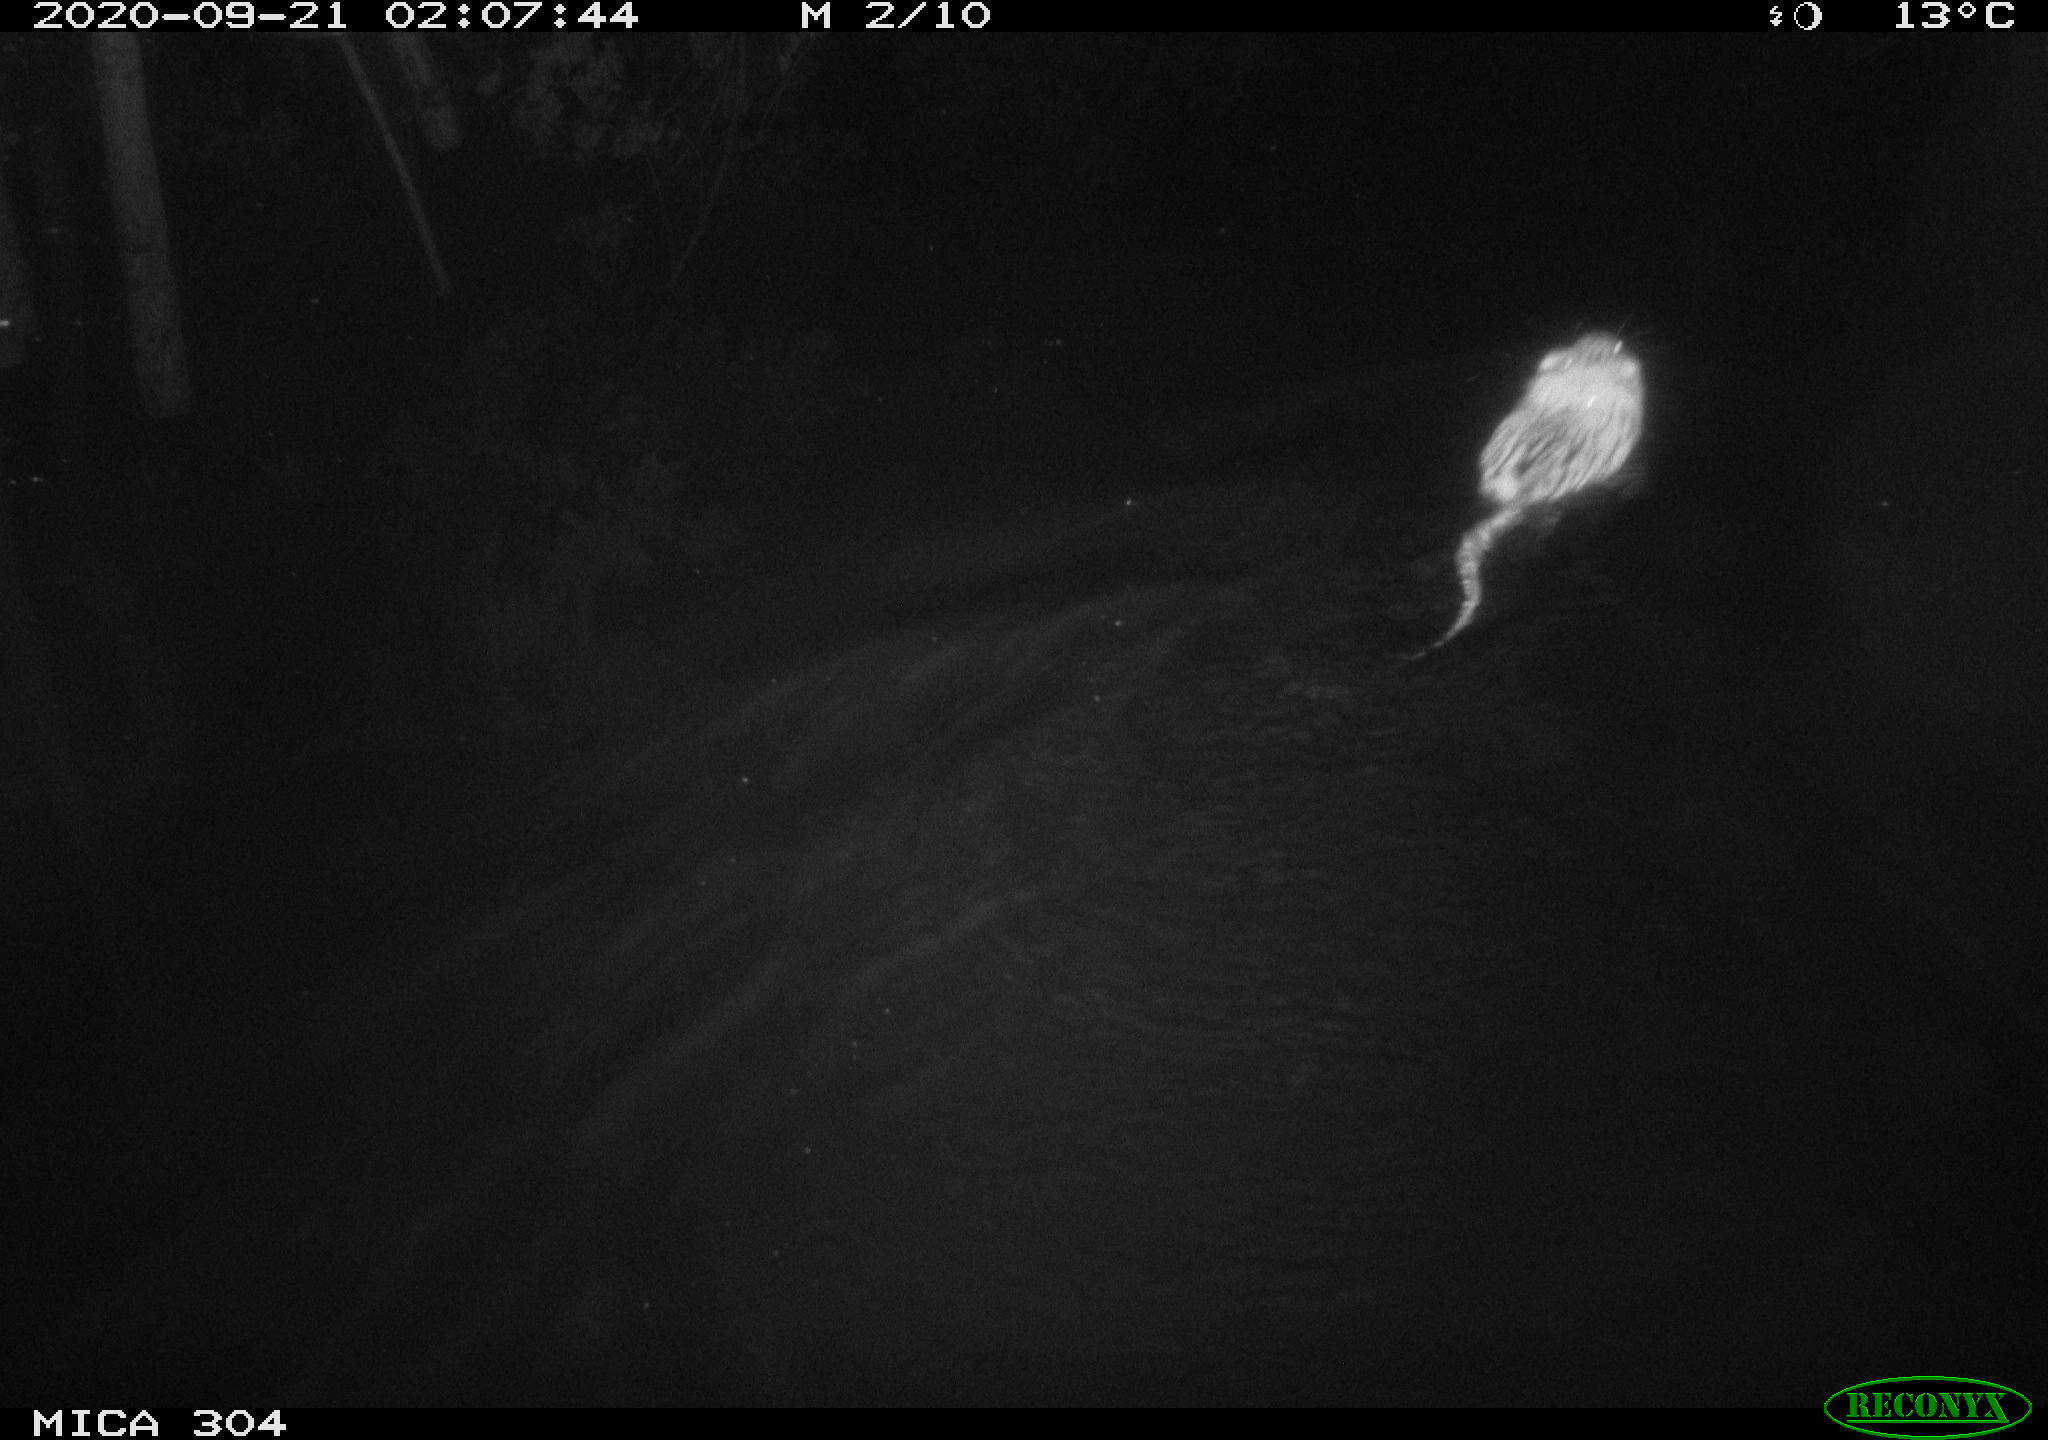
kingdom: Animalia
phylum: Chordata
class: Mammalia
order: Rodentia
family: Cricetidae
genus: Ondatra
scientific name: Ondatra zibethicus
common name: Muskrat
